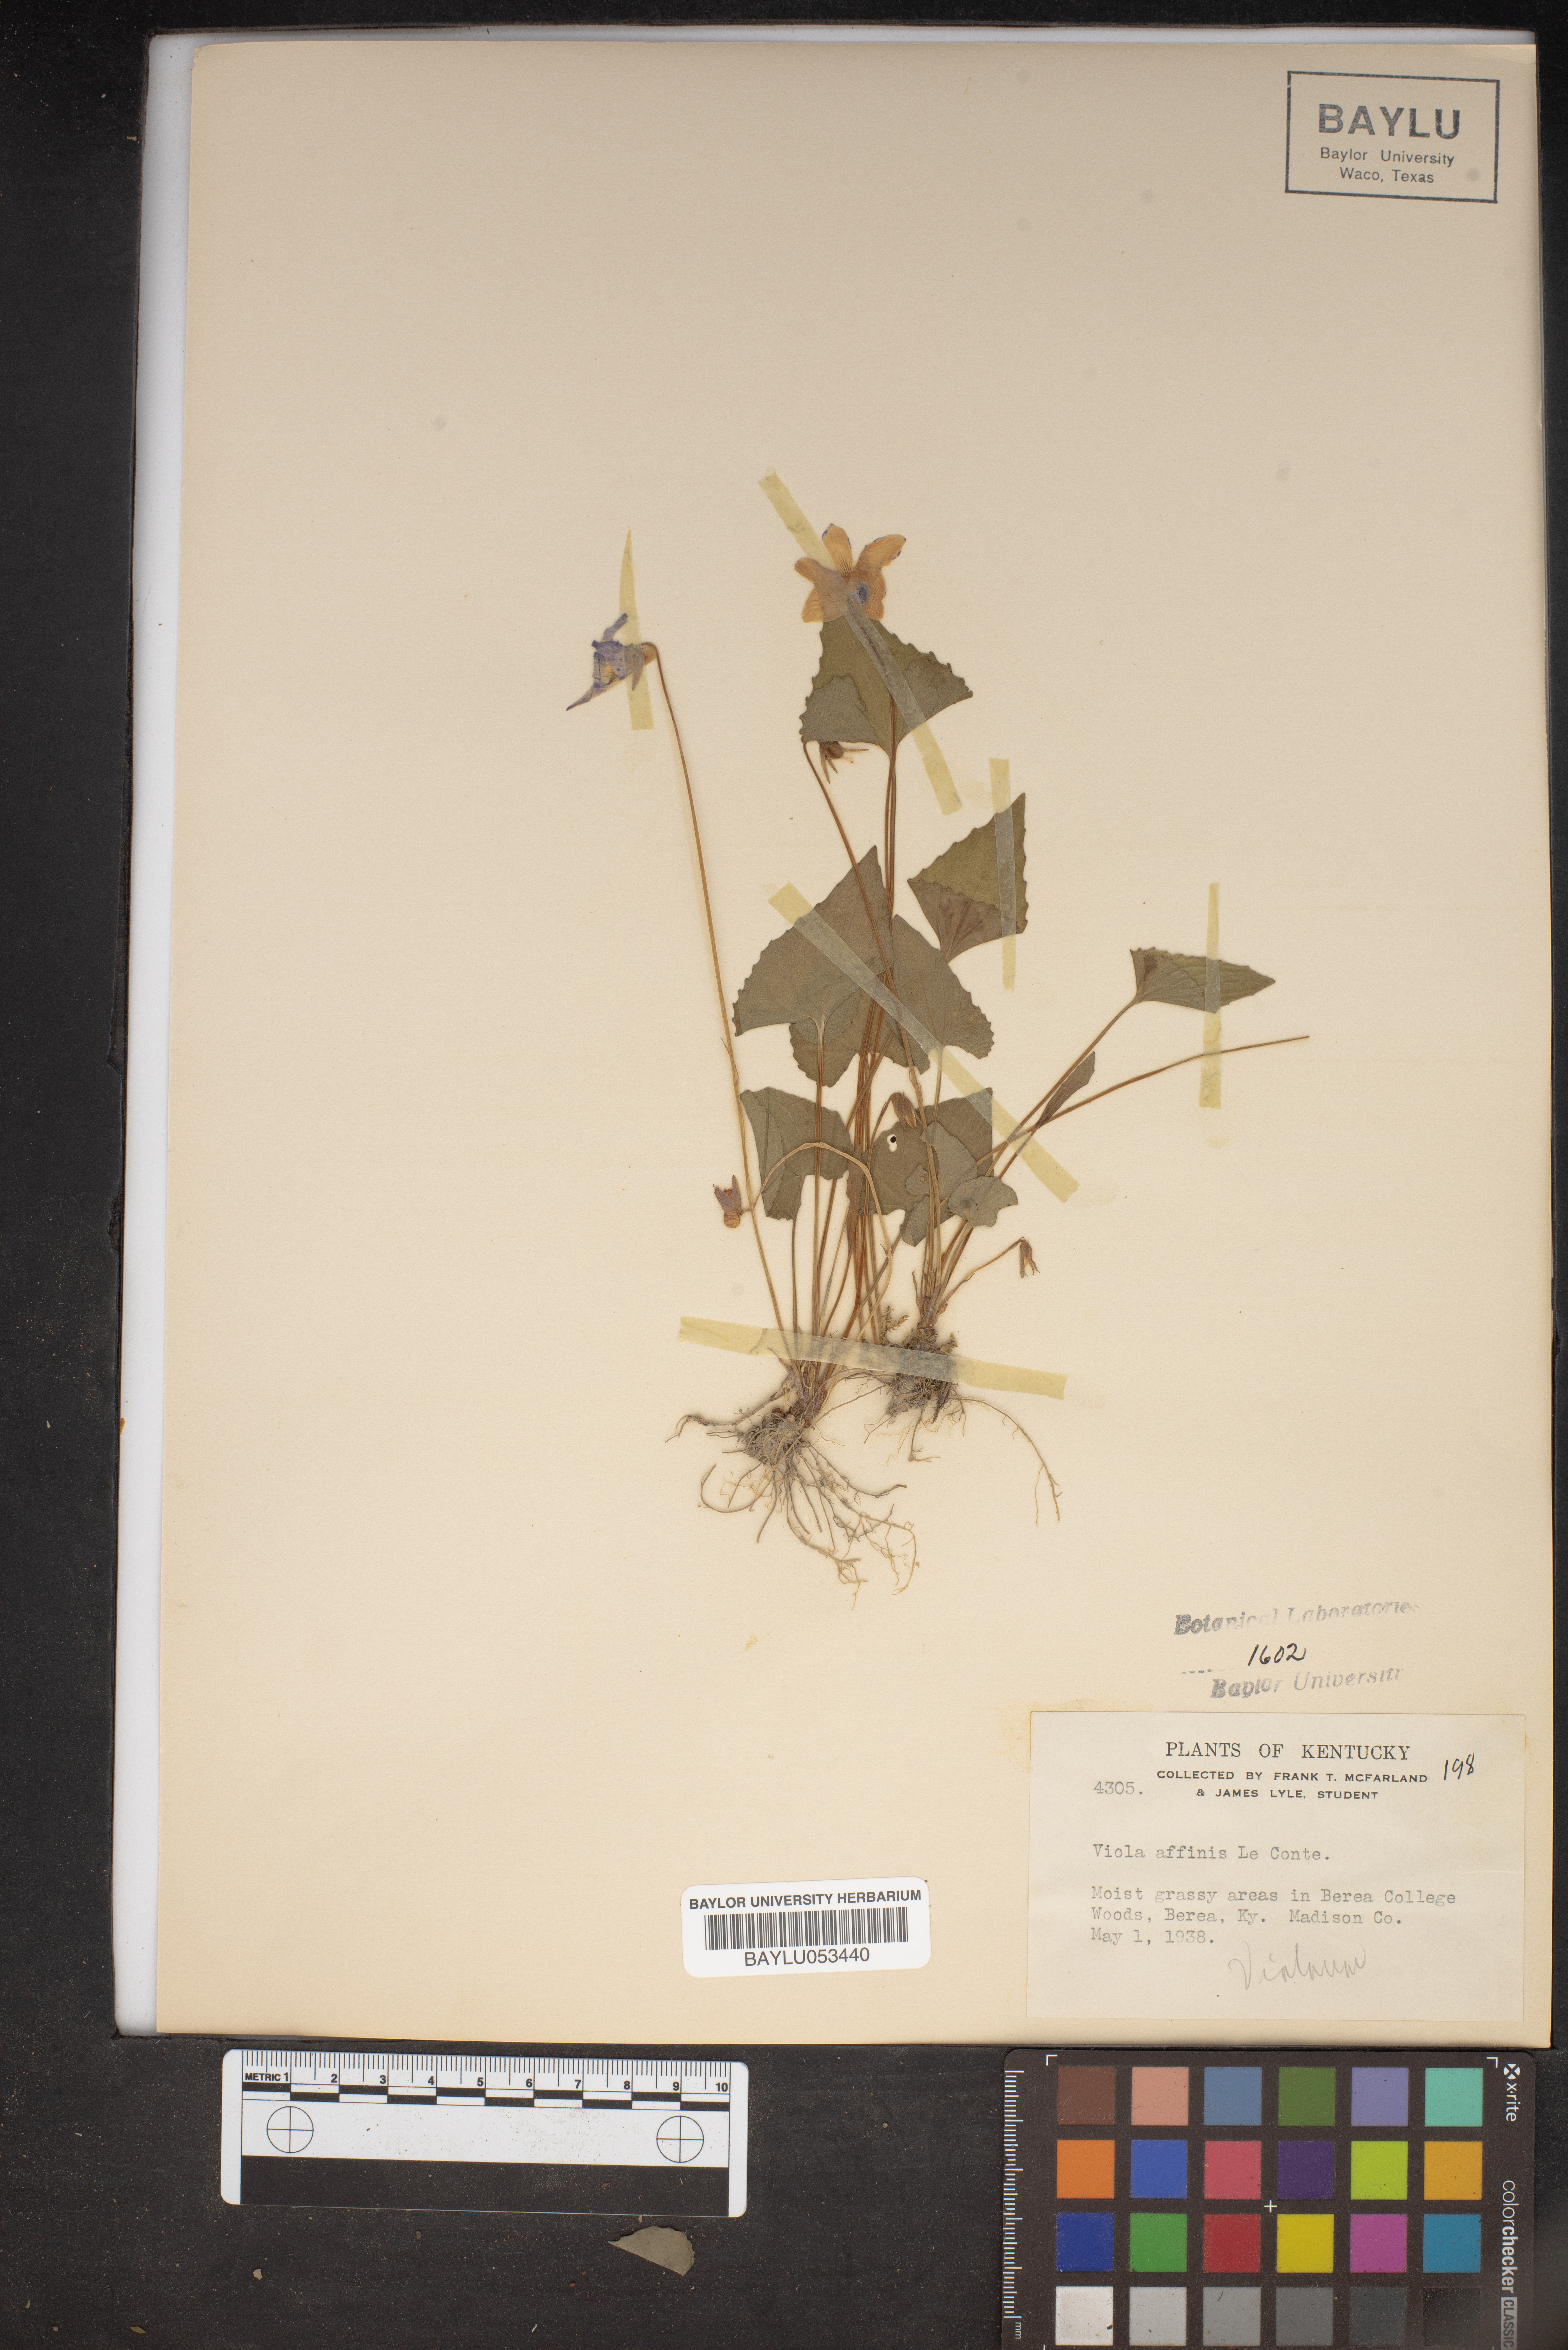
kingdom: Plantae
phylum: Tracheophyta
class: Magnoliopsida
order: Malpighiales
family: Violaceae
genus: Viola
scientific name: Viola affinis
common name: Leconte's violet
